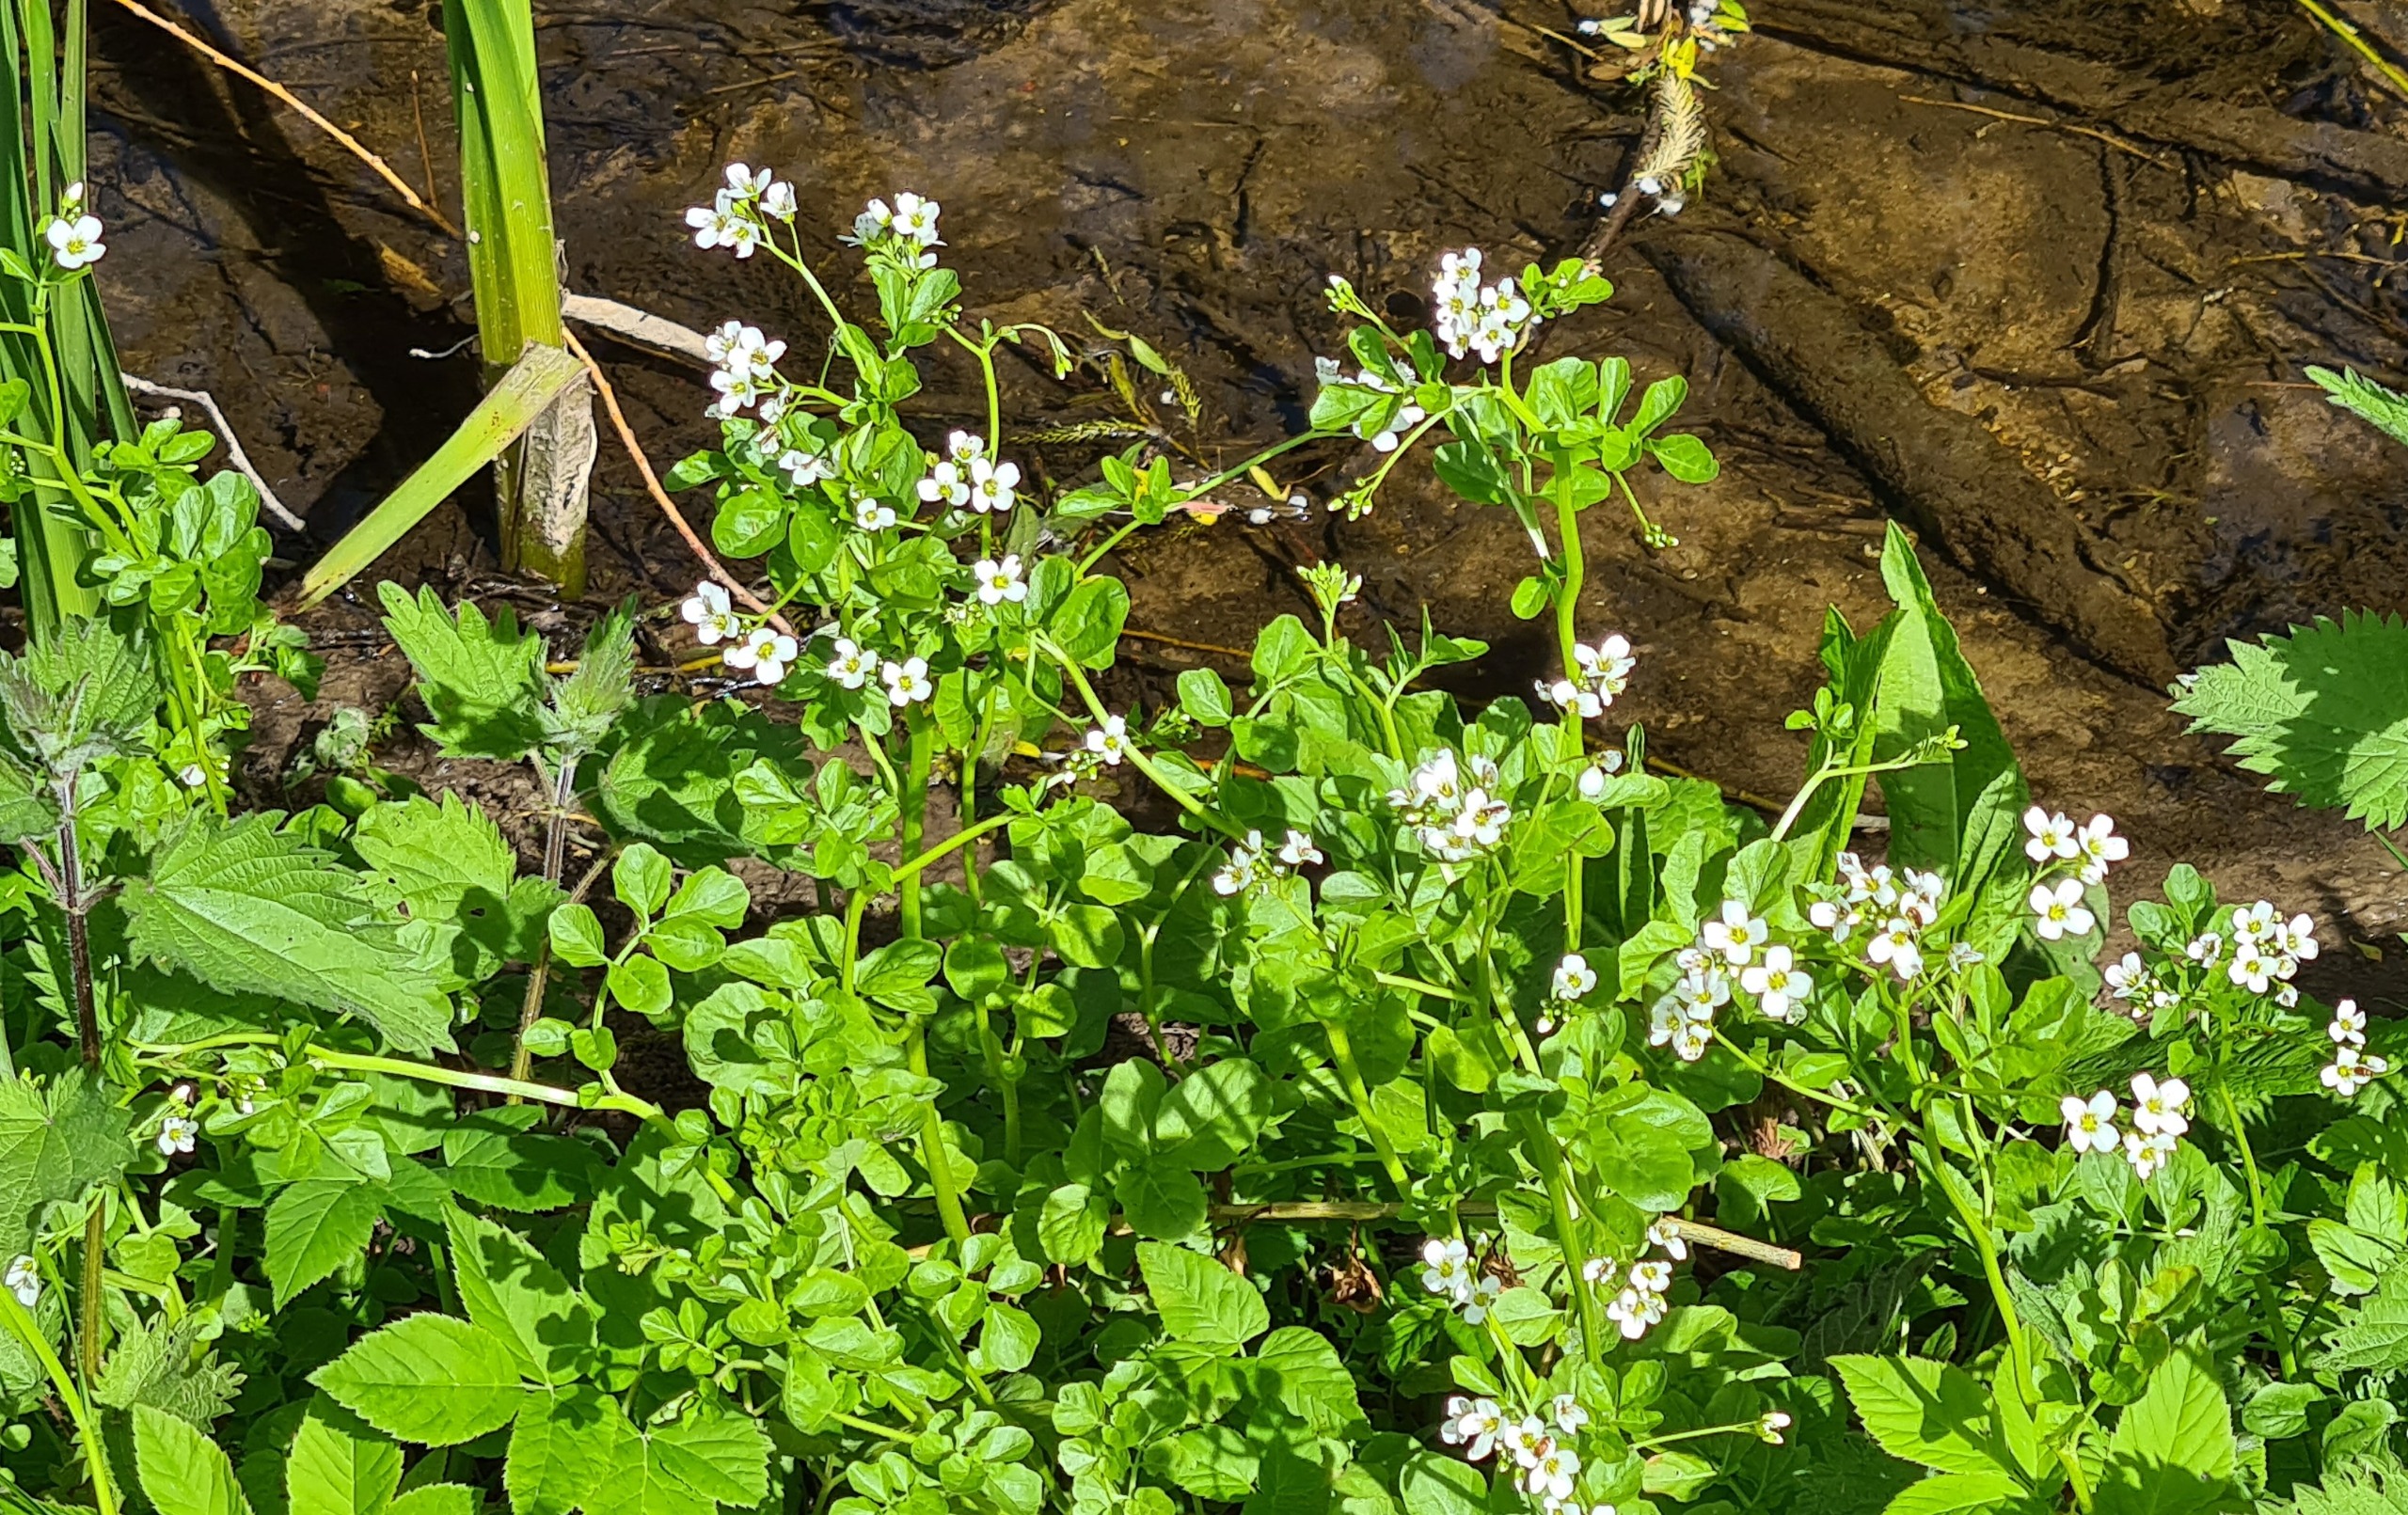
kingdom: Plantae
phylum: Tracheophyta
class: Magnoliopsida
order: Brassicales
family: Brassicaceae
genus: Cardamine
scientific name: Cardamine amara
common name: Vandkarse
